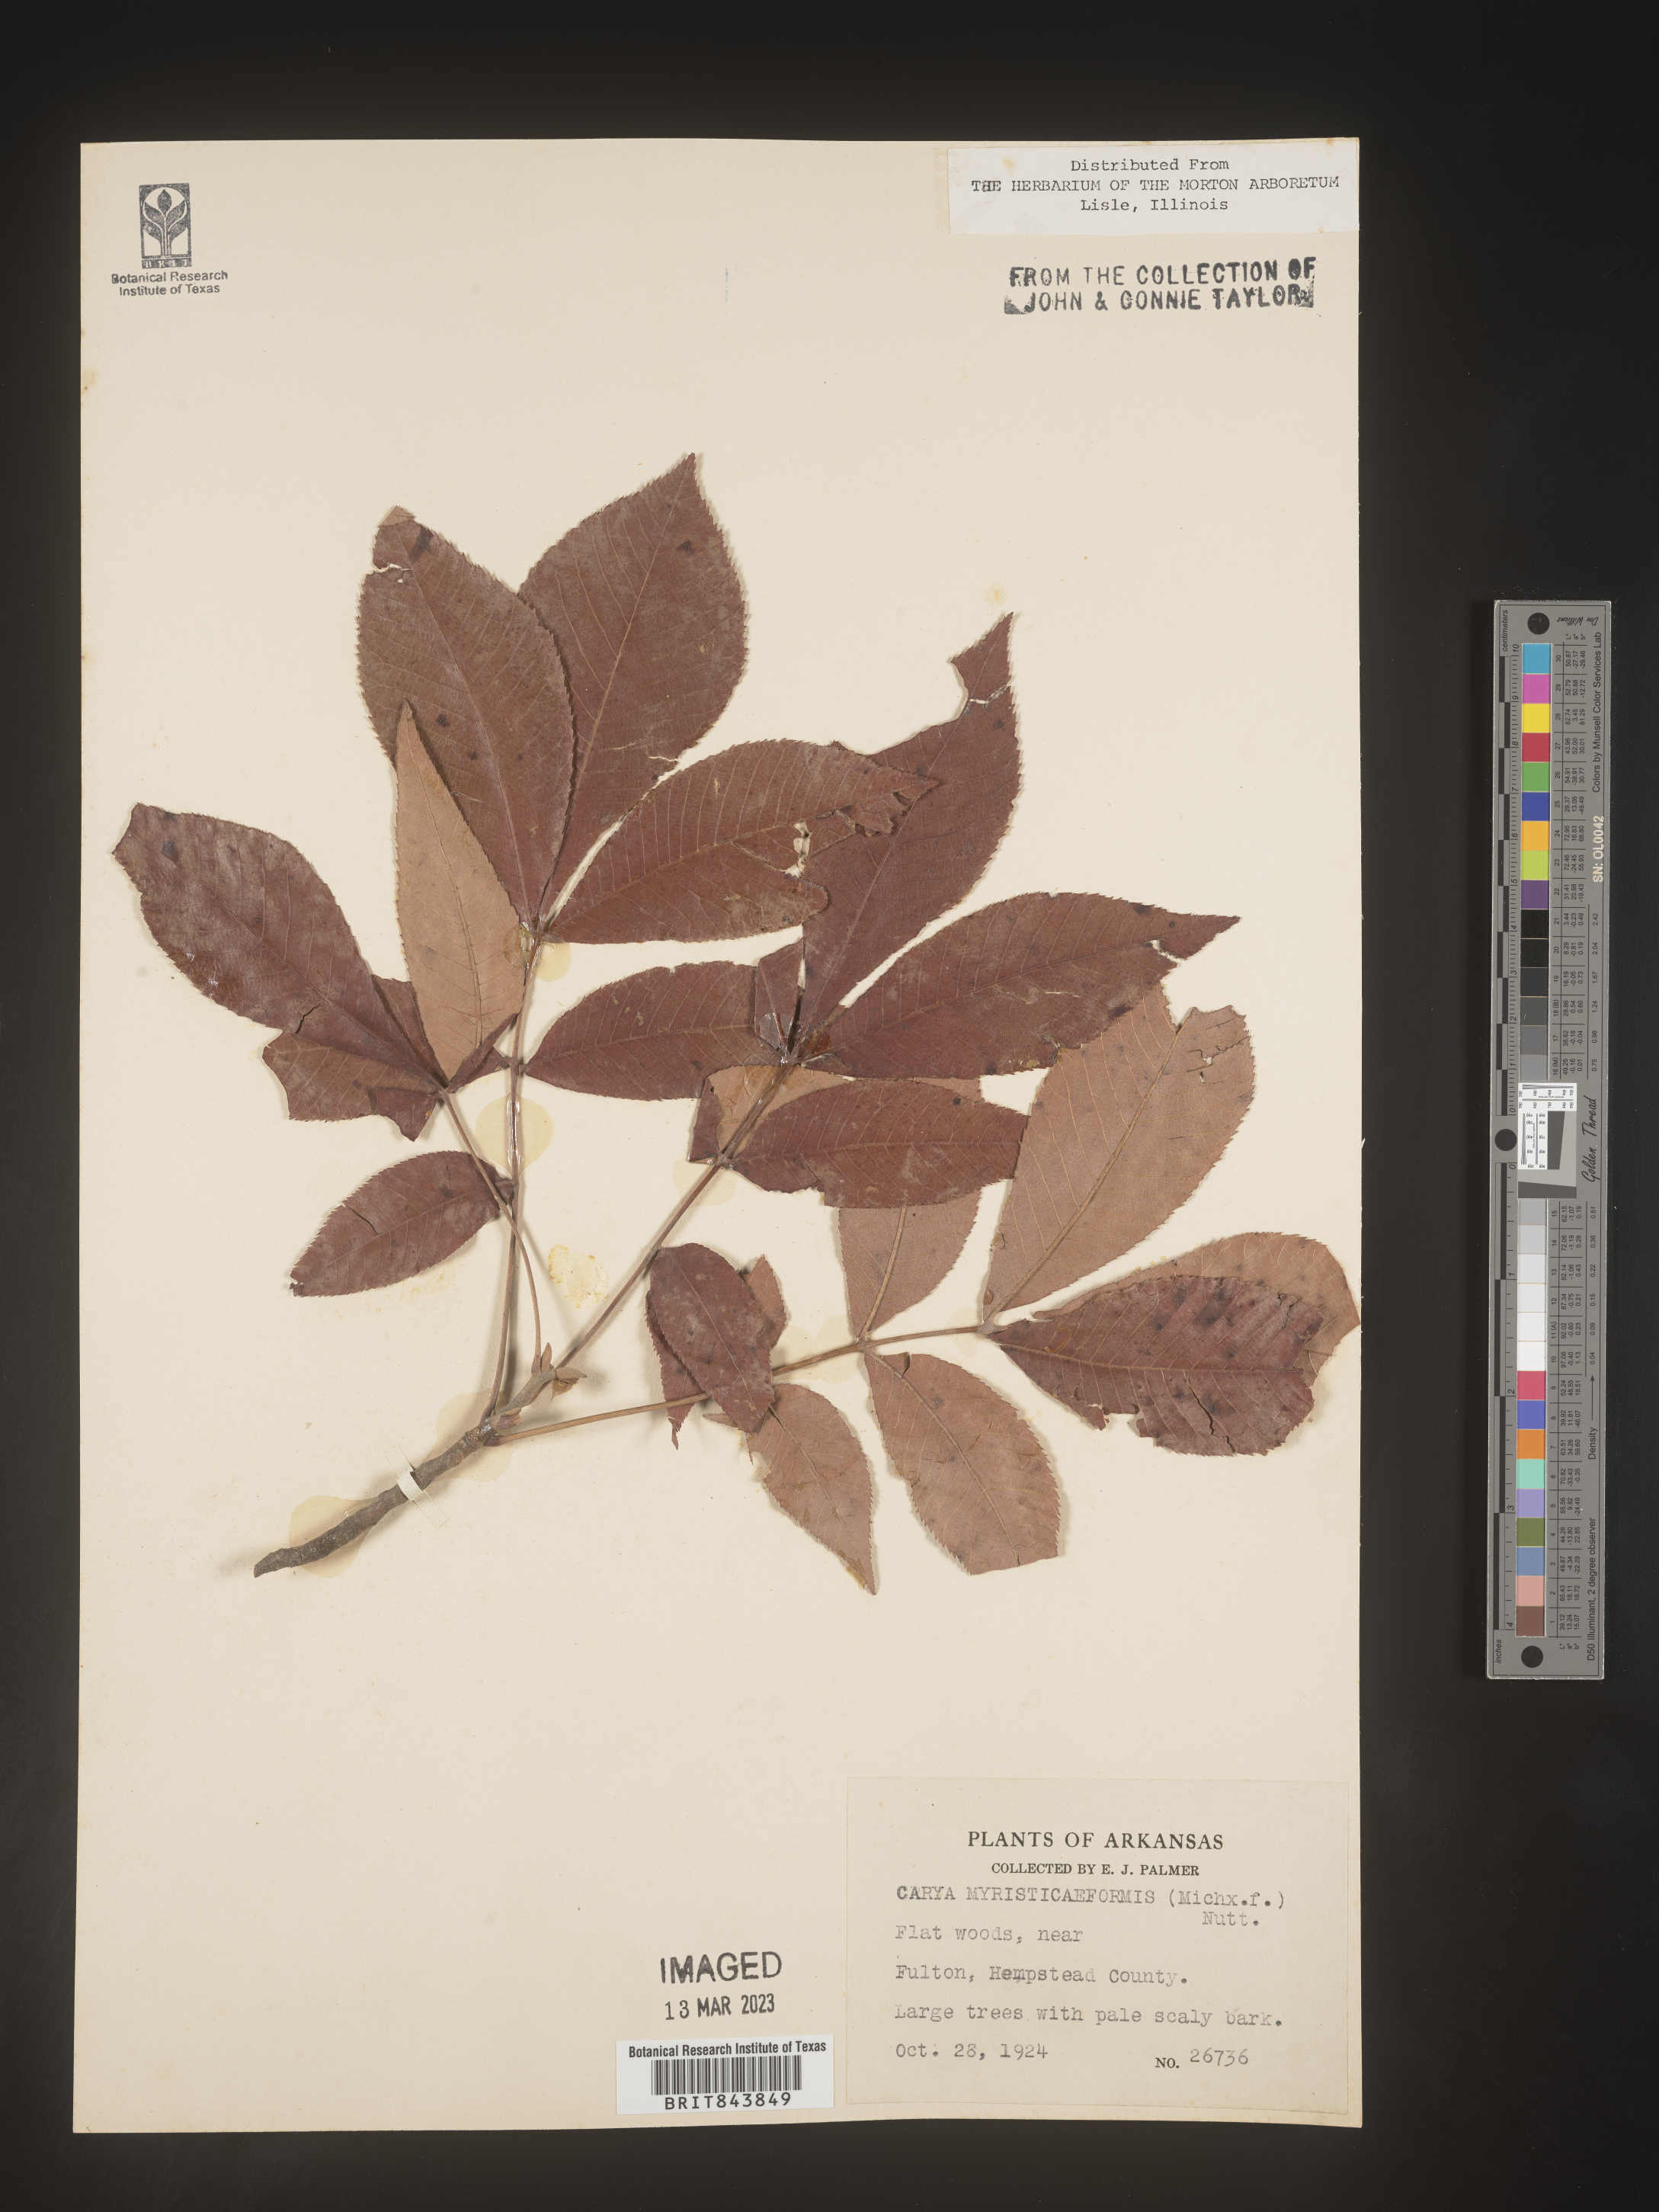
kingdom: Plantae
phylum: Tracheophyta
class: Magnoliopsida
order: Fagales
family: Juglandaceae
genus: Carya
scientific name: Carya myristiciformis
